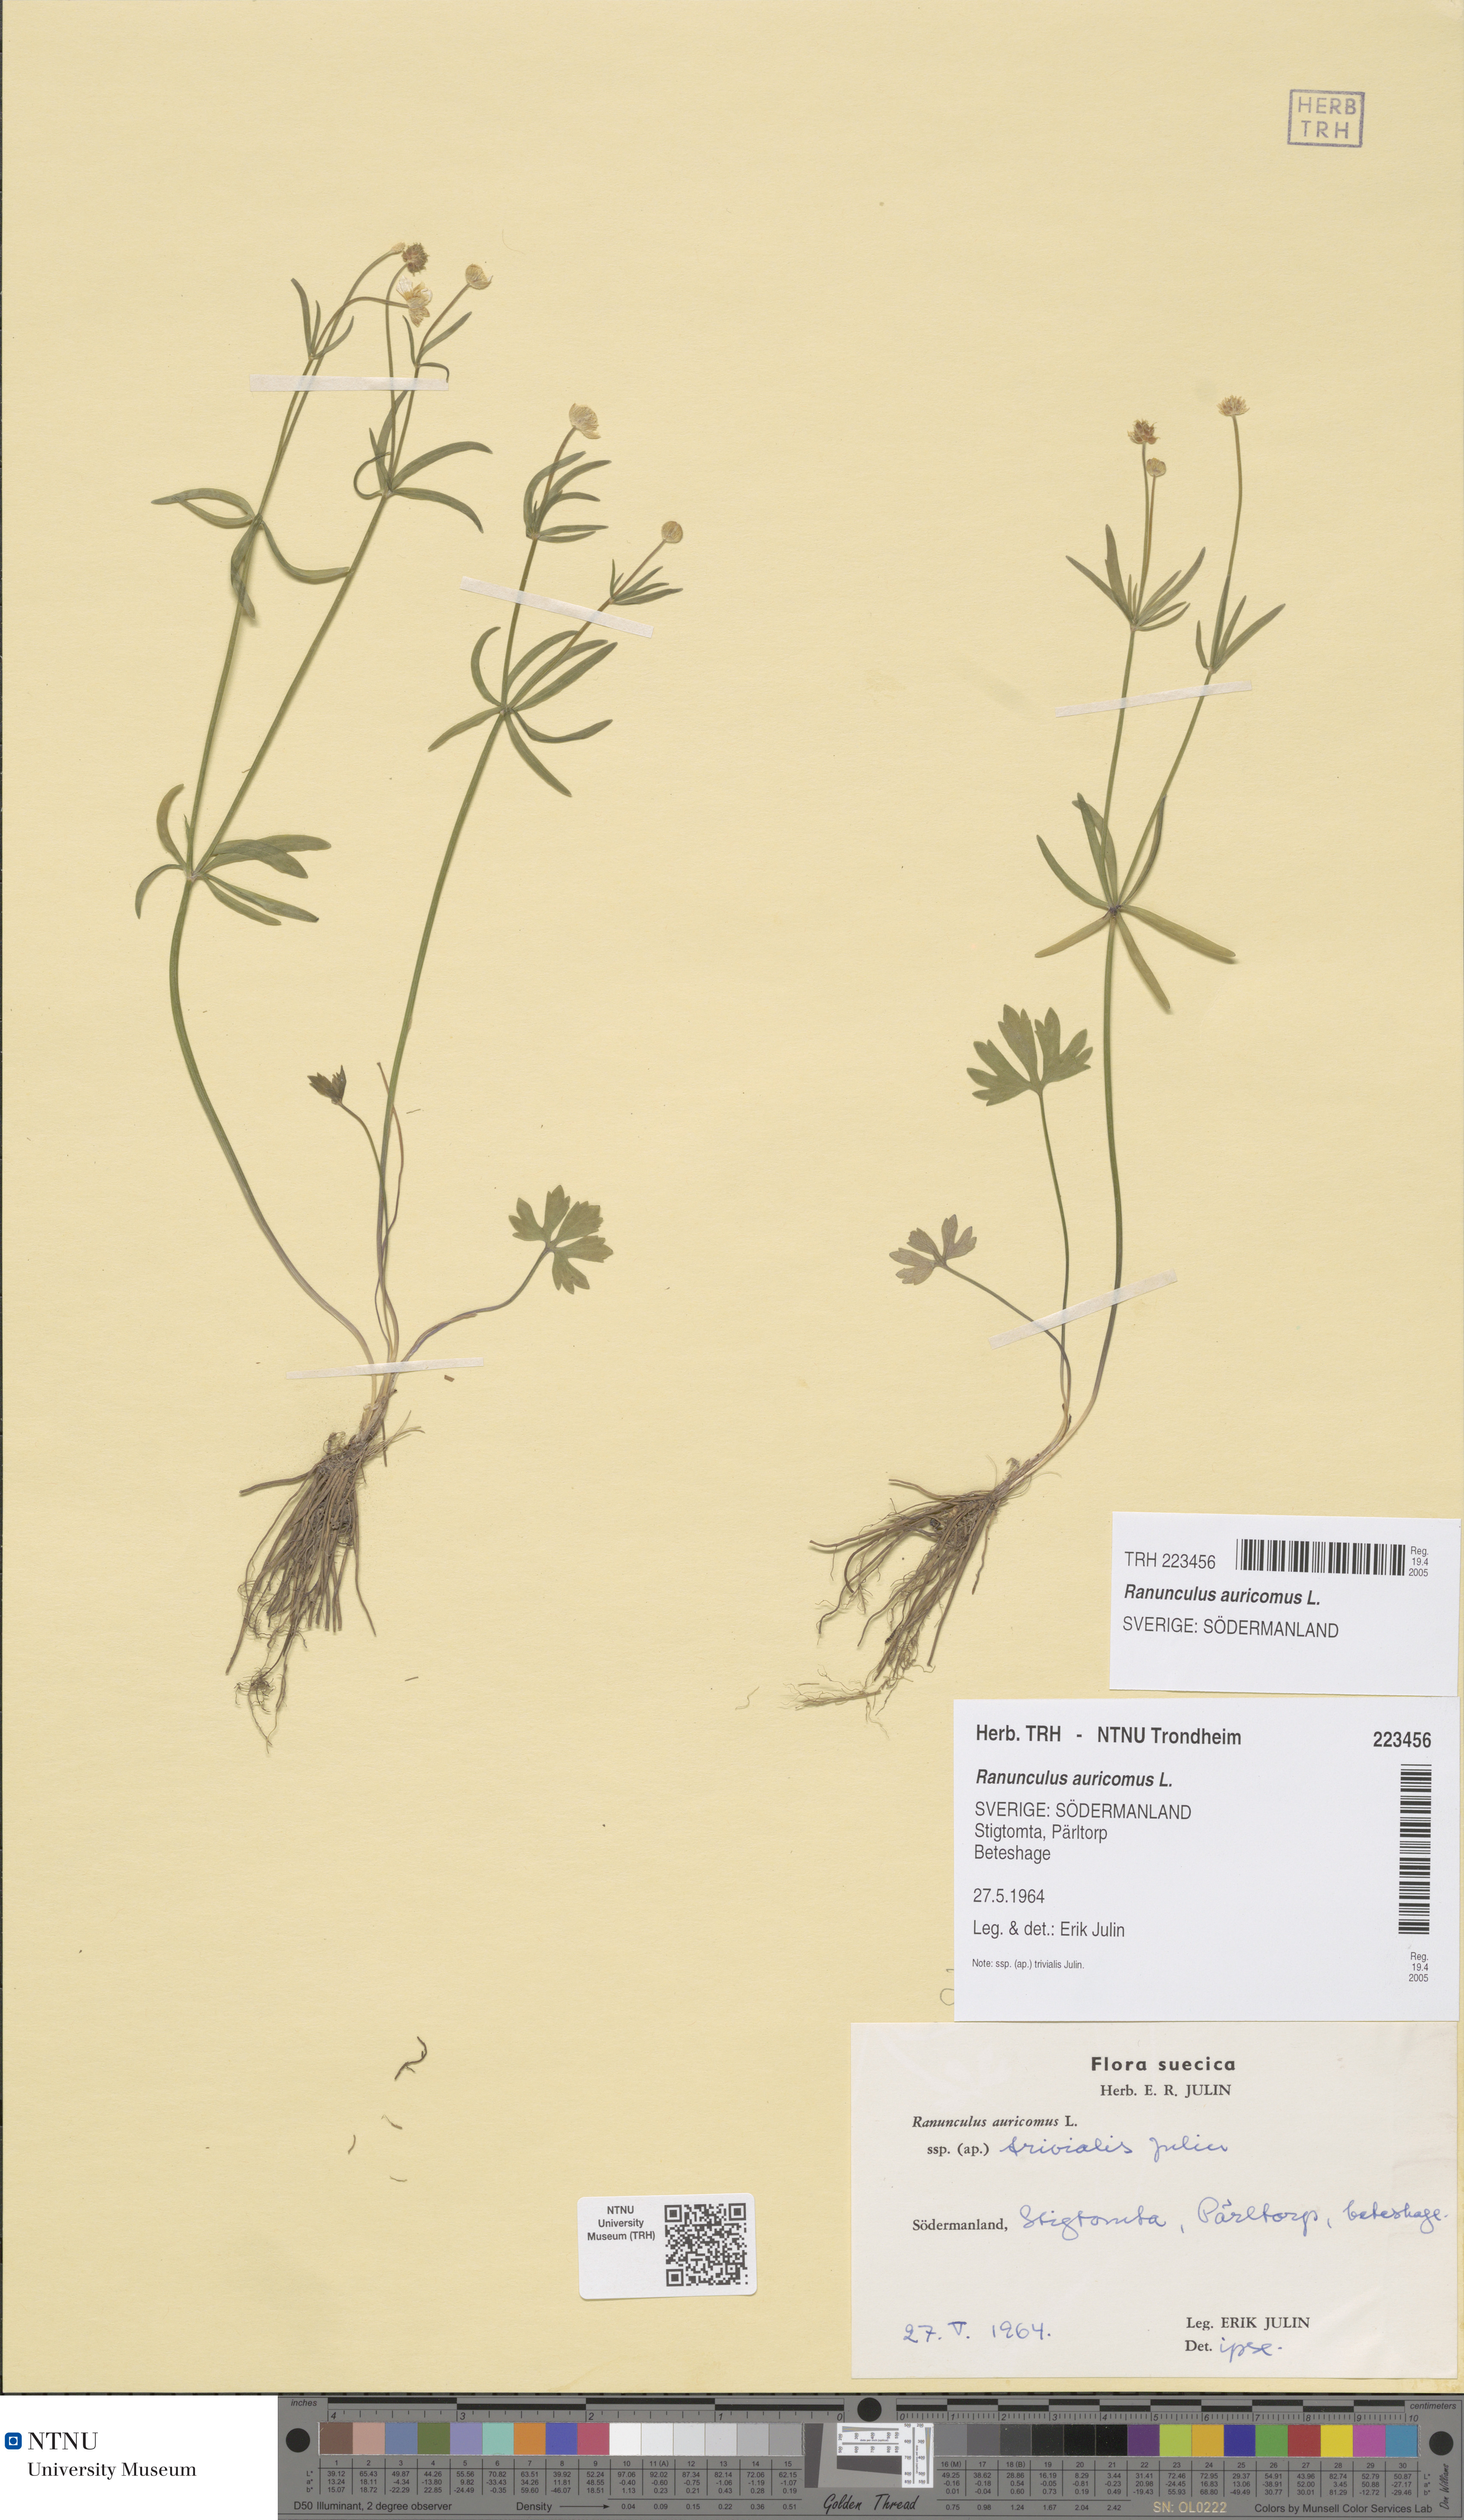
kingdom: Plantae
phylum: Tracheophyta
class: Magnoliopsida
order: Ranunculales
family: Ranunculaceae
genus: Ranunculus
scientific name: Ranunculus auricomus
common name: Goldilocks buttercup
